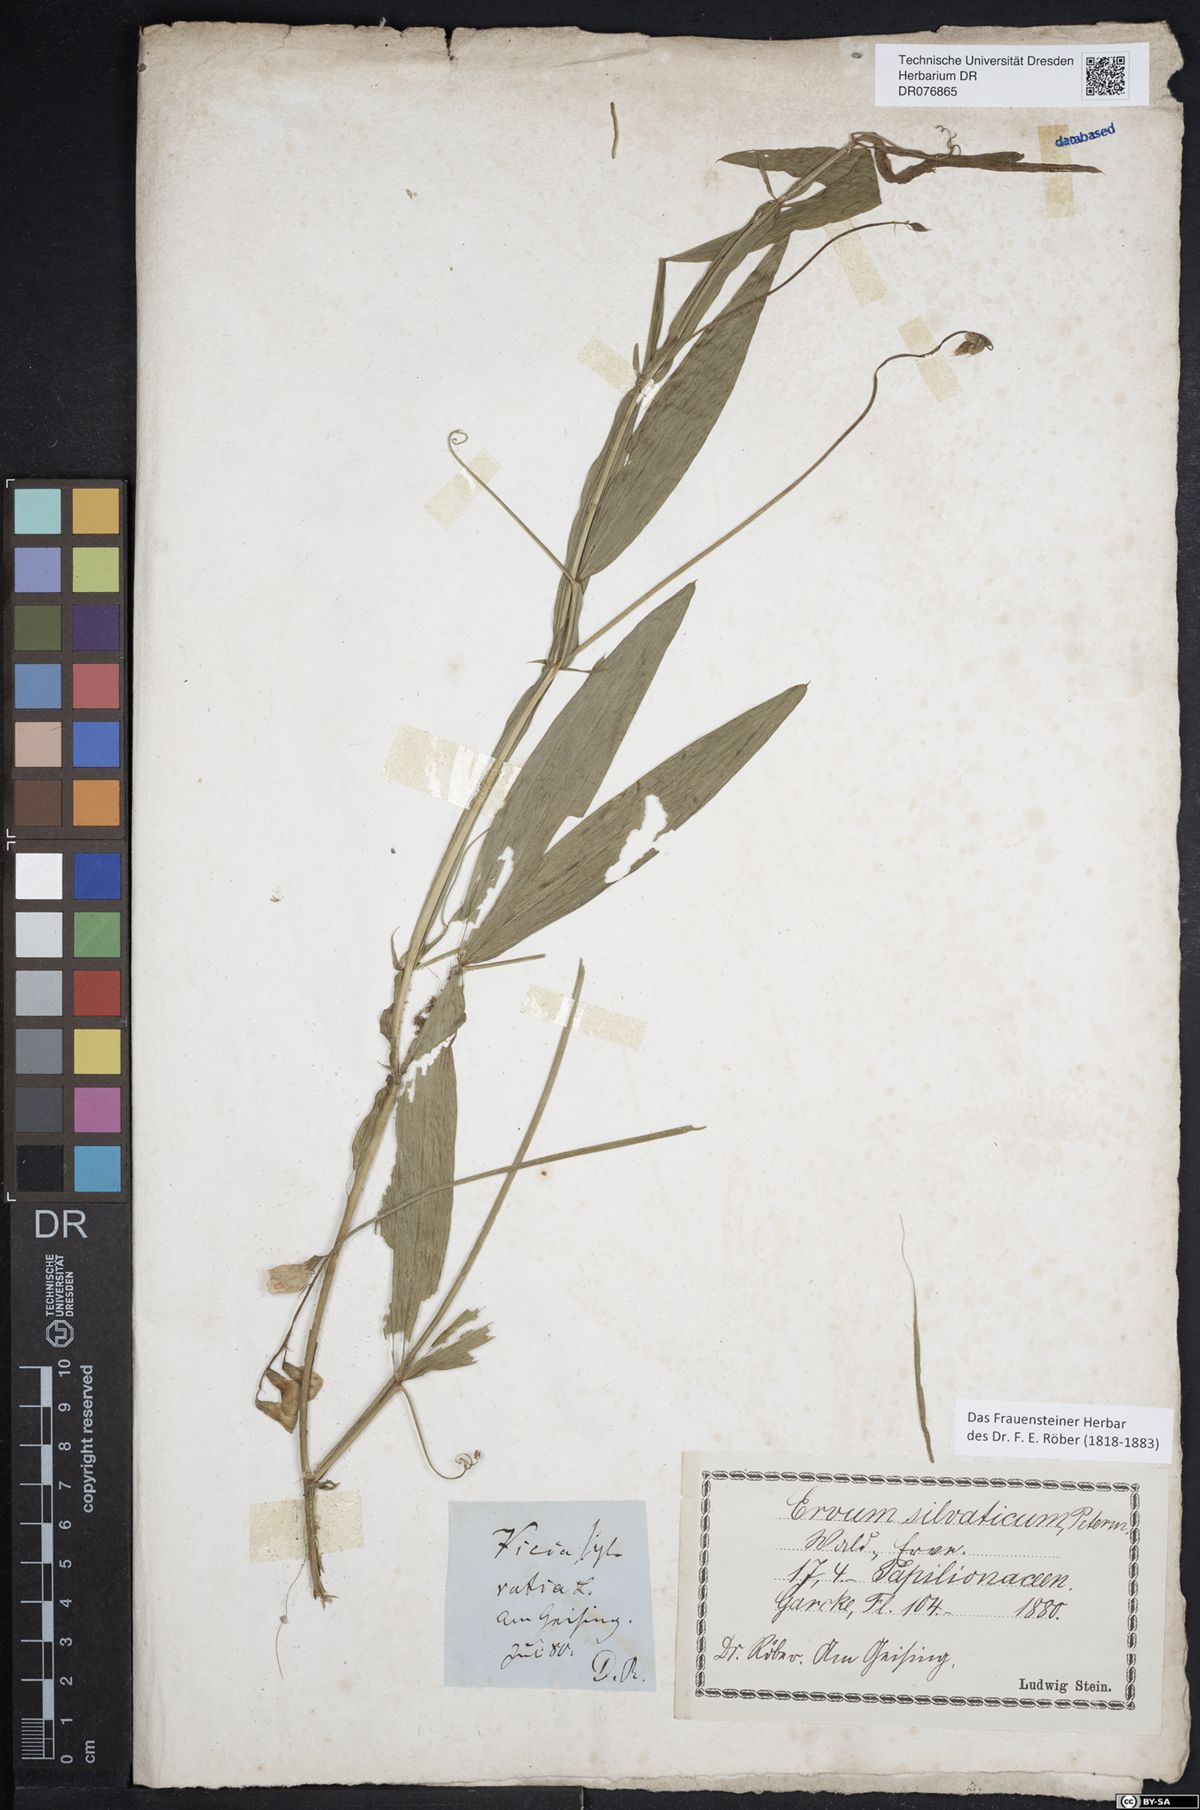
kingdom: Plantae
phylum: Tracheophyta
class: Magnoliopsida
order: Fabales
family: Fabaceae
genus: Lathyrus
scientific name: Lathyrus sylvestris
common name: Flat pea
